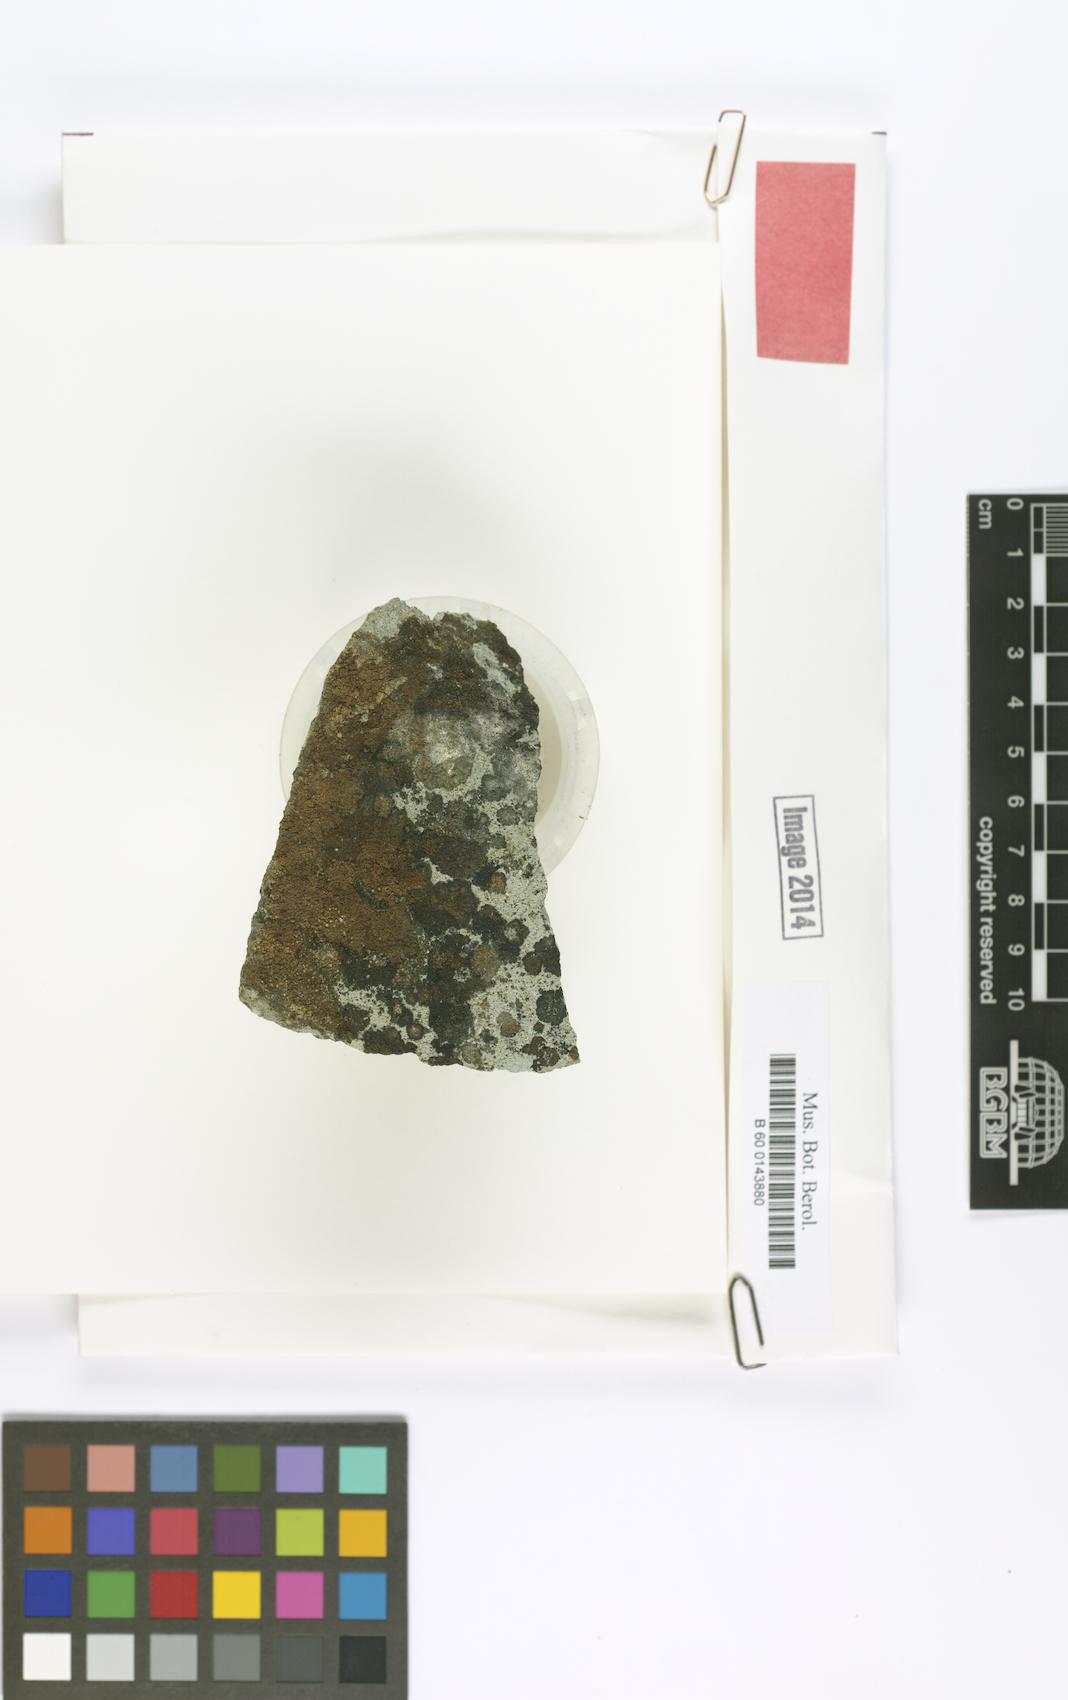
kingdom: Fungi
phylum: Ascomycota
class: Lecanoromycetes
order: Peltigerales
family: Placynthiaceae
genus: Placynthiopsis
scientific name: Placynthiopsis
